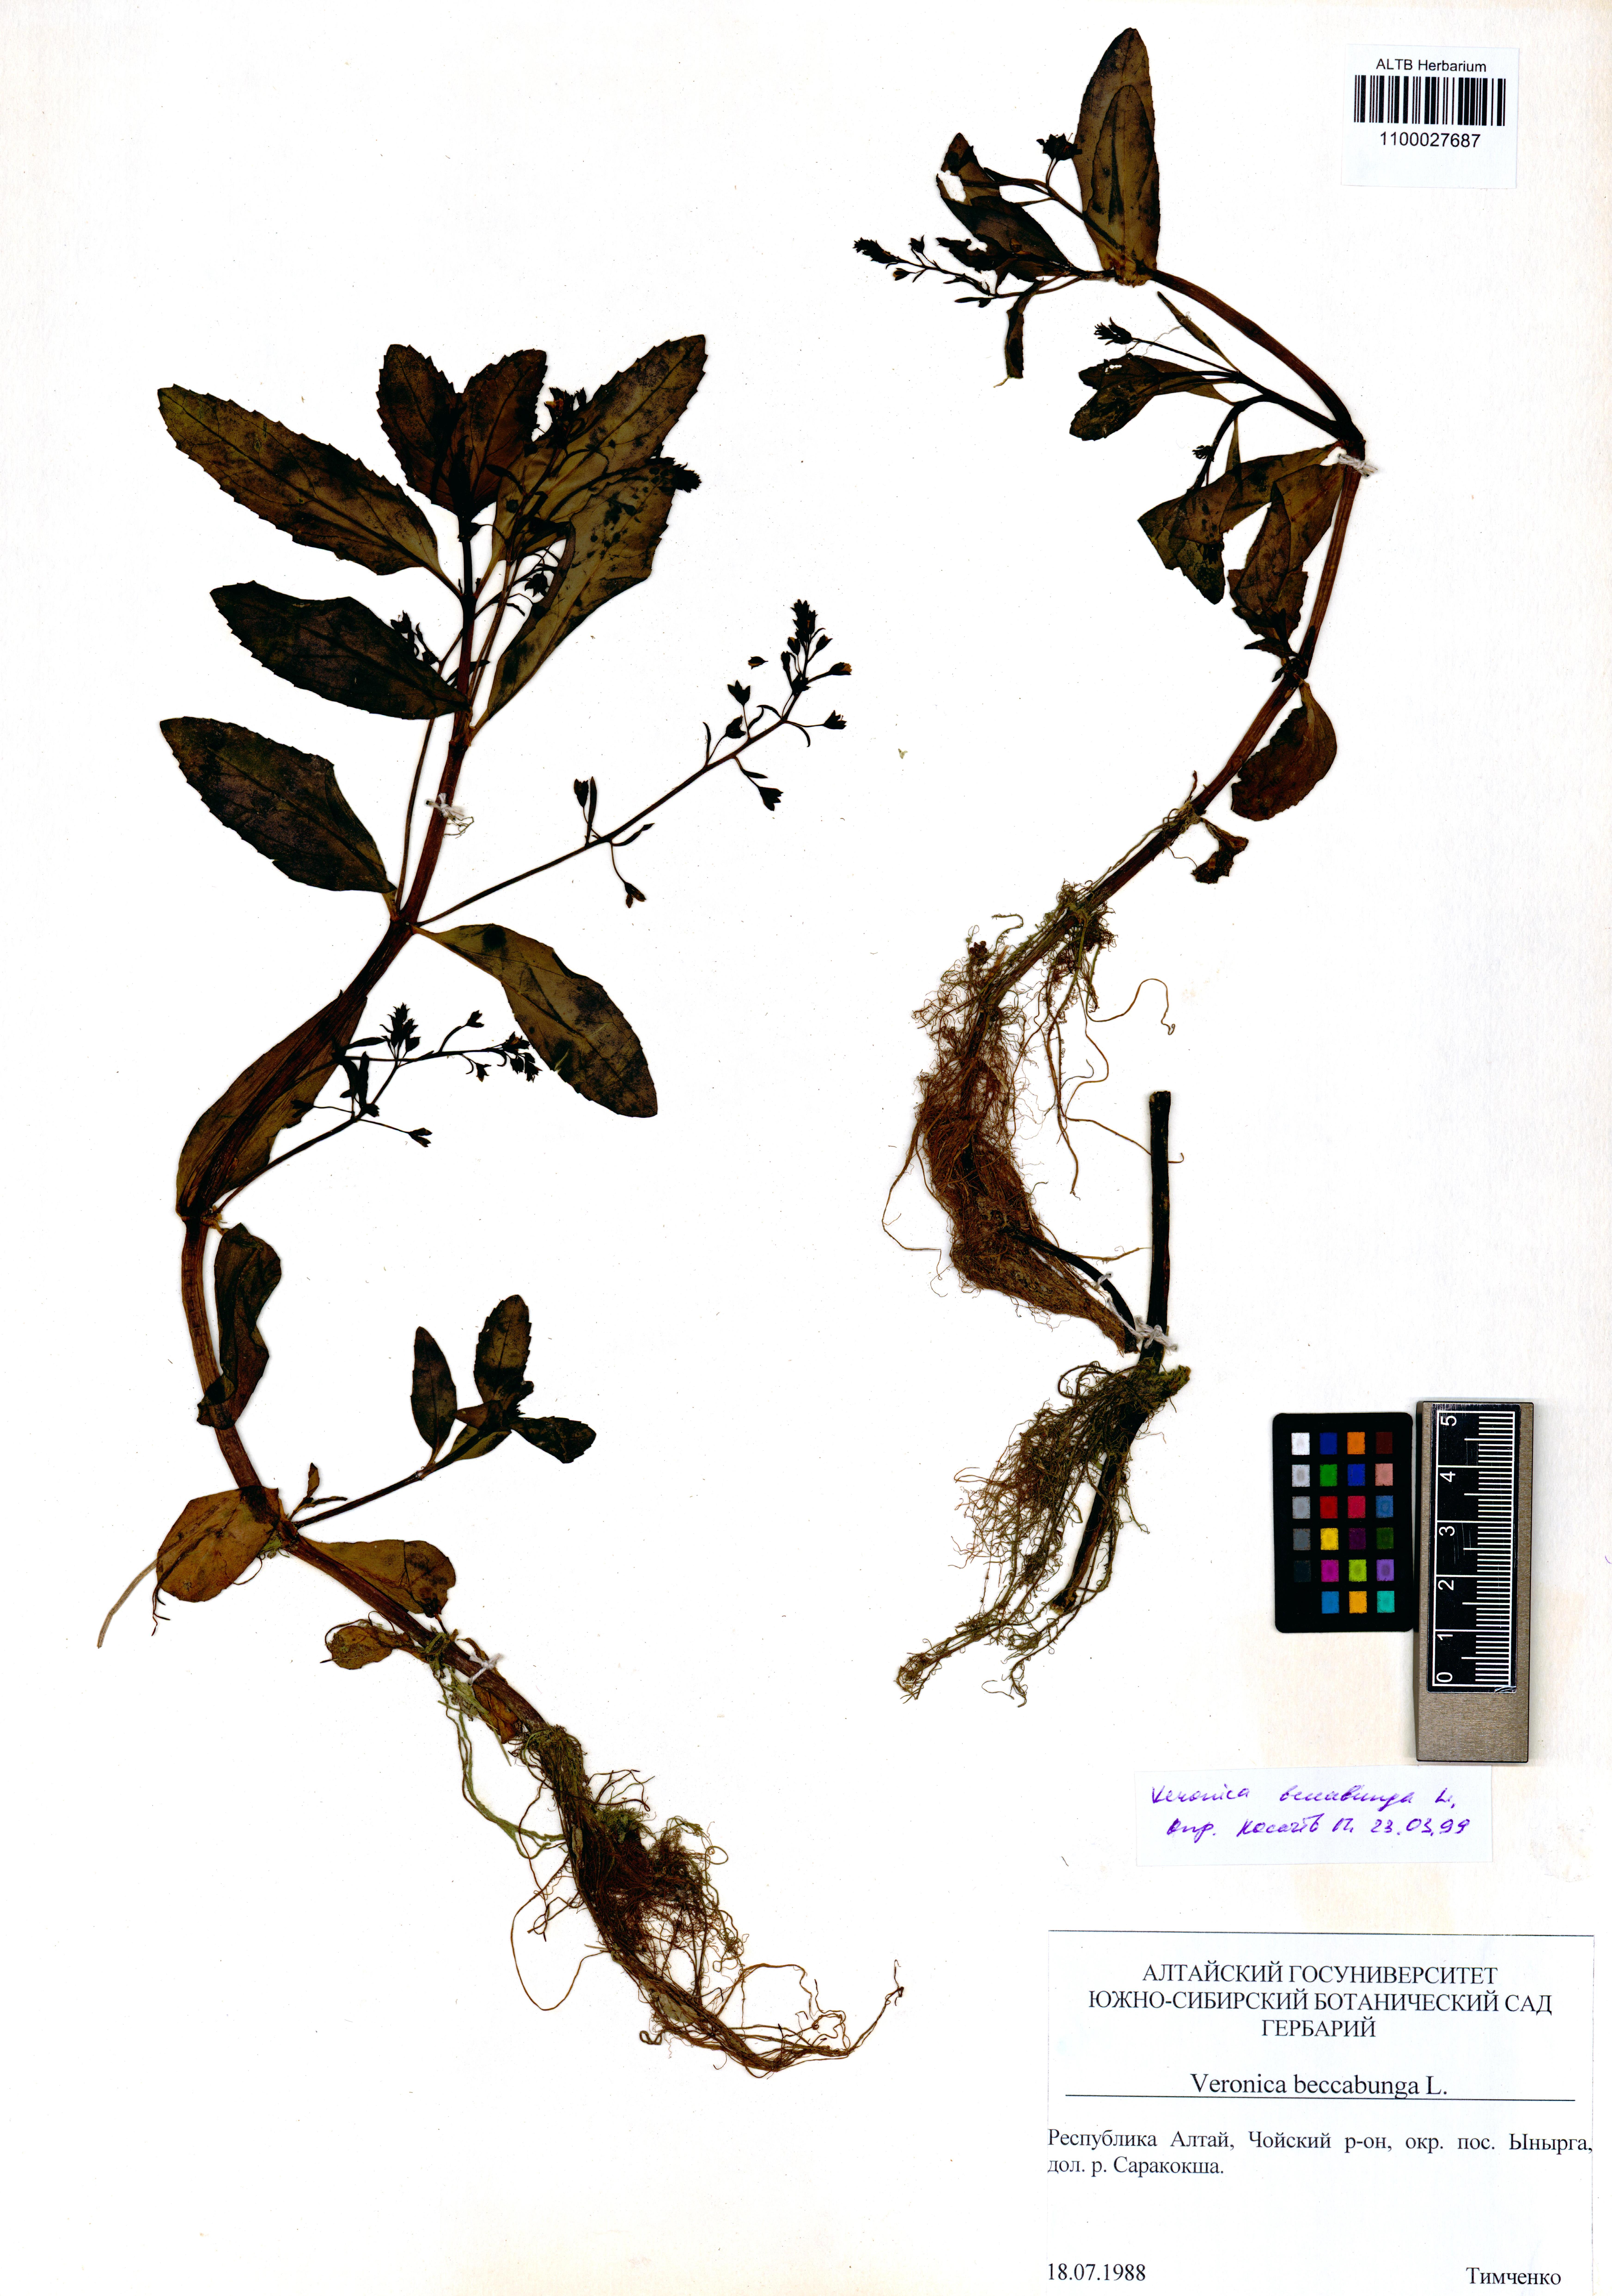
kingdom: Plantae
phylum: Tracheophyta
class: Magnoliopsida
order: Lamiales
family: Plantaginaceae
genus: Veronica
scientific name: Veronica beccabunga
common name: Brooklime
